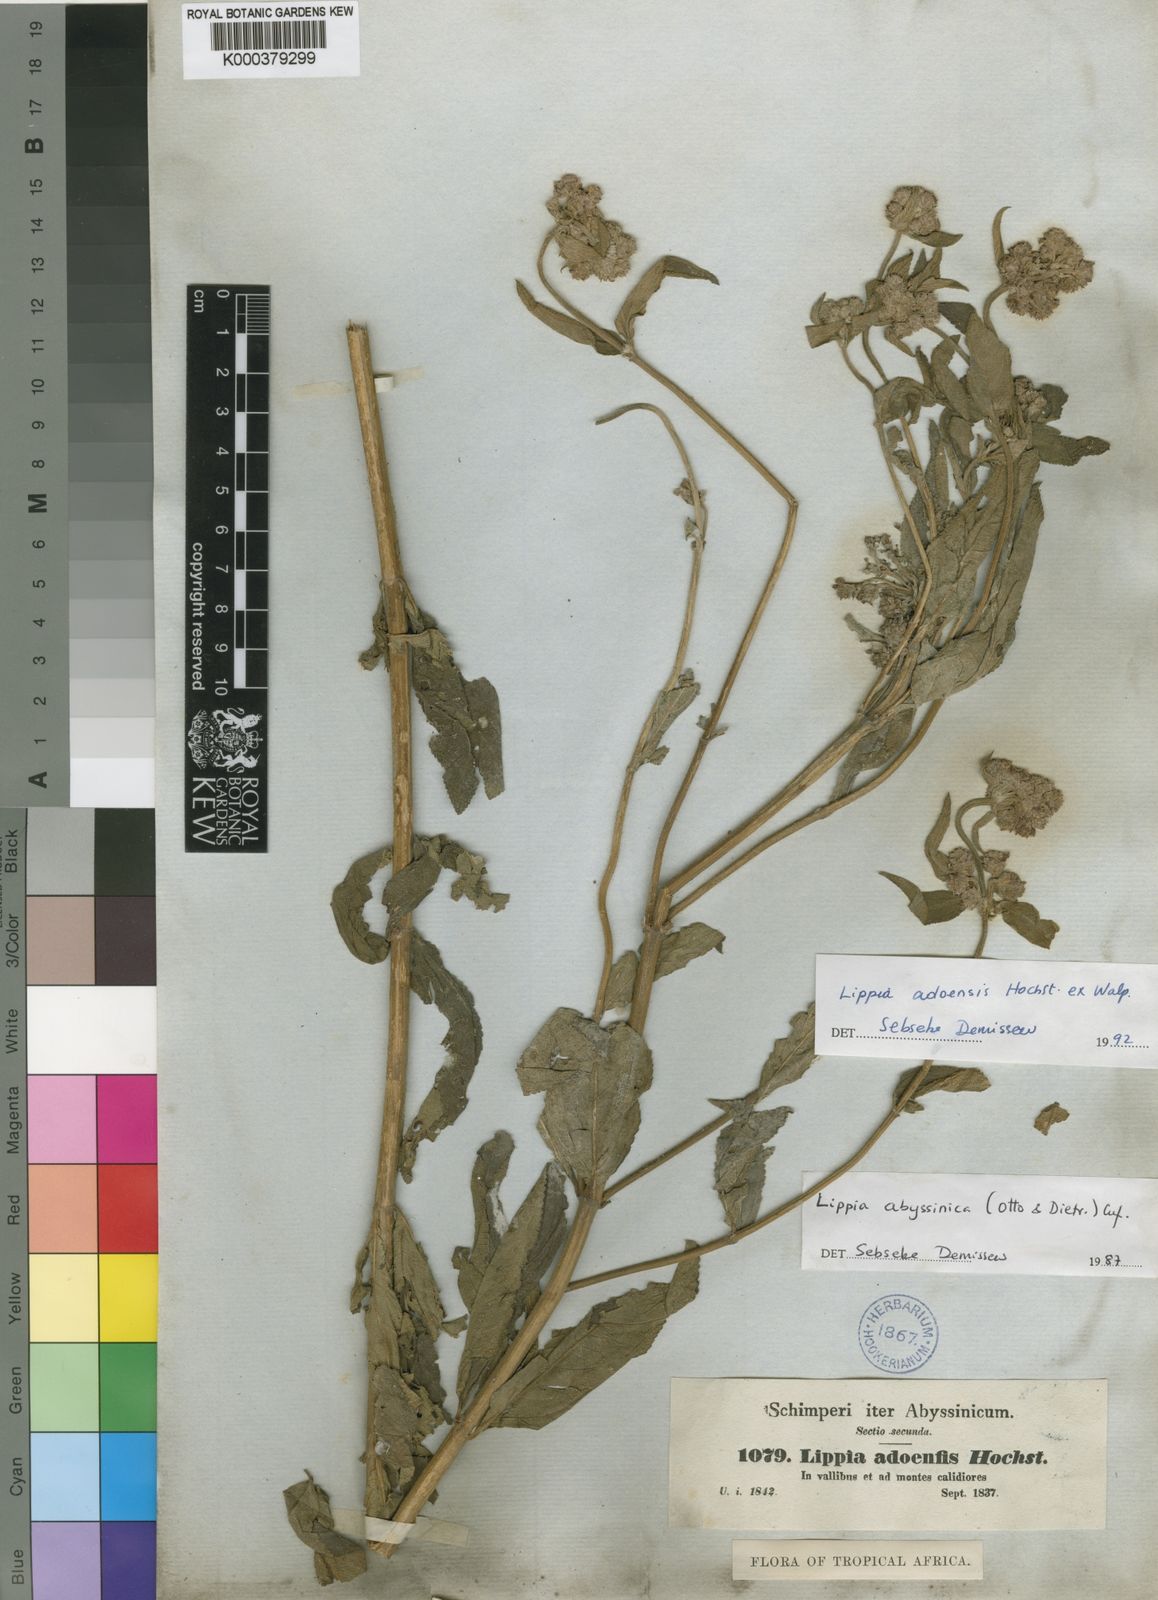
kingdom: Plantae
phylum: Tracheophyta
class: Magnoliopsida
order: Lamiales
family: Verbenaceae
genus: Lippia
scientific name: Lippia abyssinica
